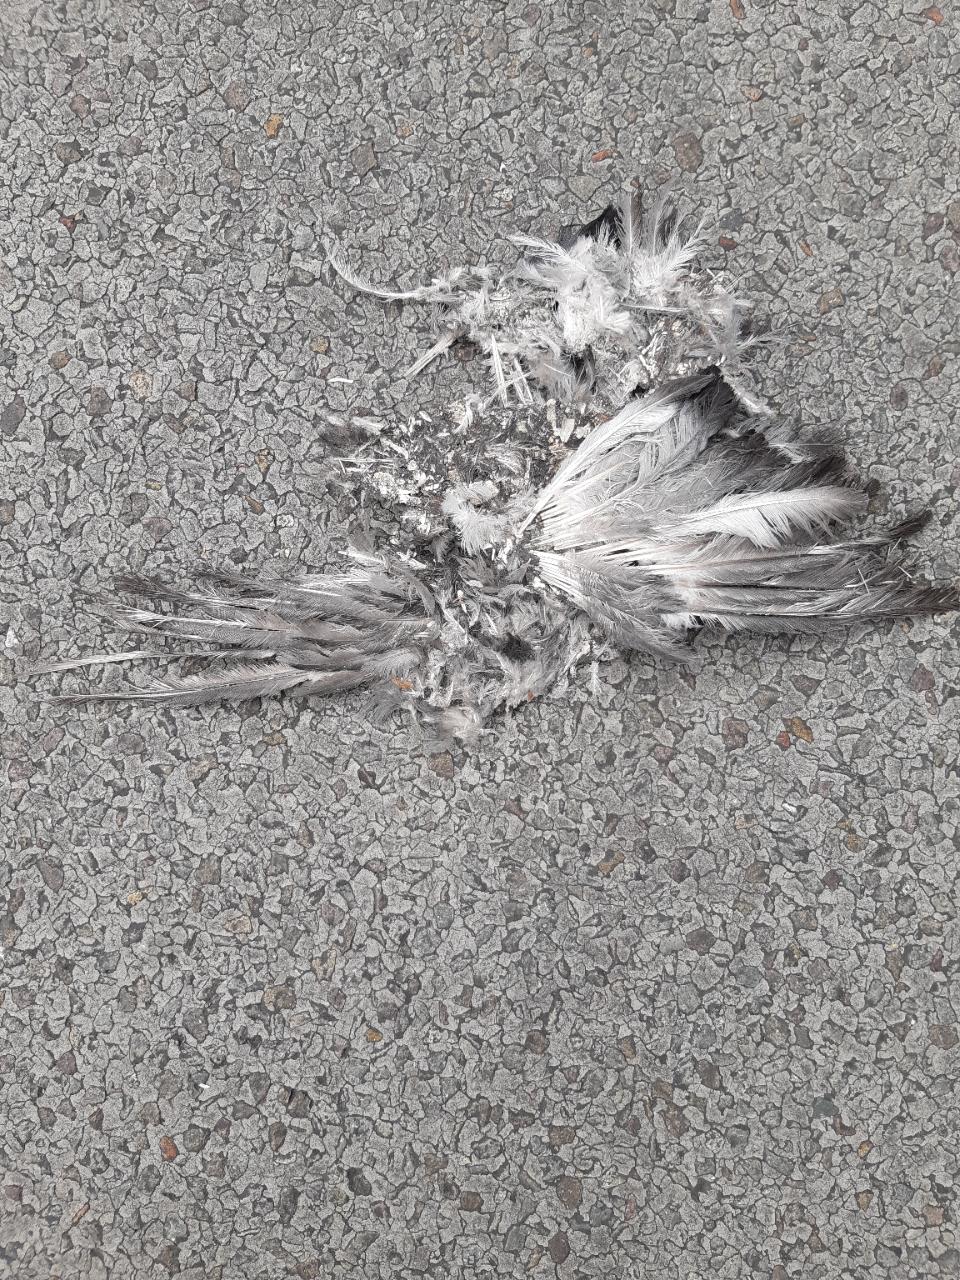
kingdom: Animalia
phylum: Chordata
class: Aves
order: Columbiformes
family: Columbidae
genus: Columba
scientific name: Columba livia
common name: Rock pigeon
